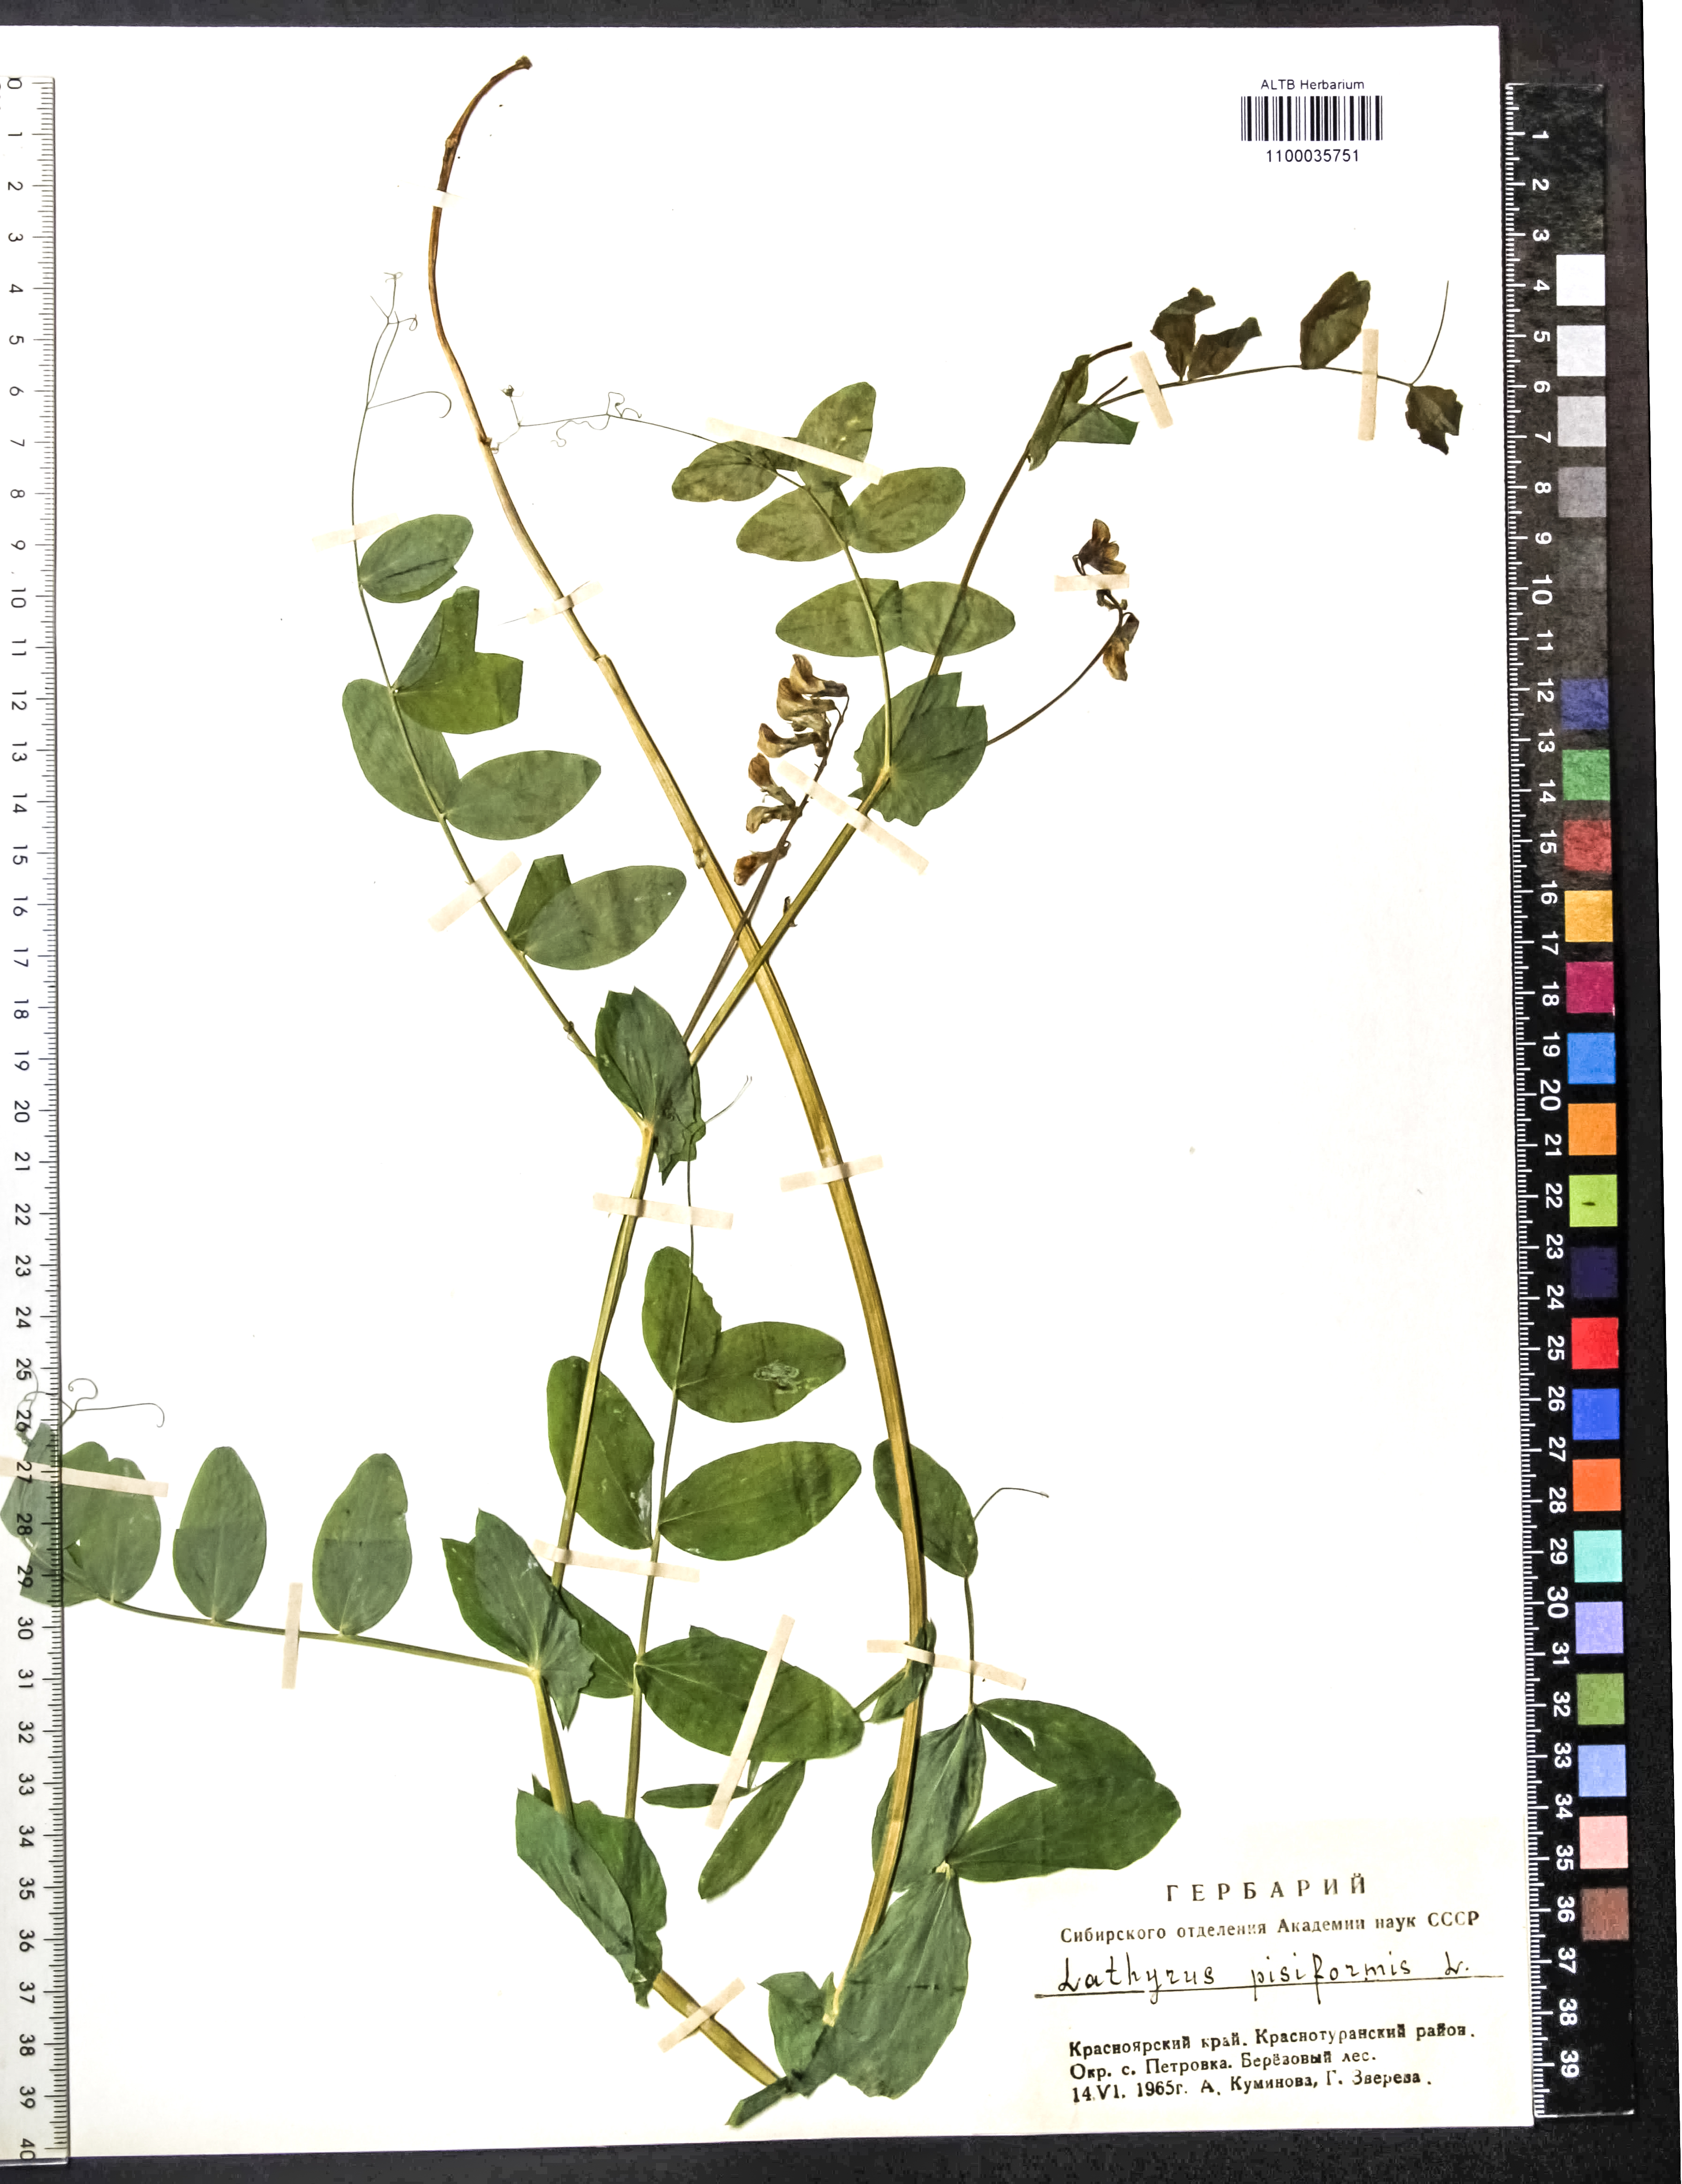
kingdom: Plantae
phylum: Tracheophyta
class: Magnoliopsida
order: Fabales
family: Fabaceae
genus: Lathyrus
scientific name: Lathyrus pisiformis
